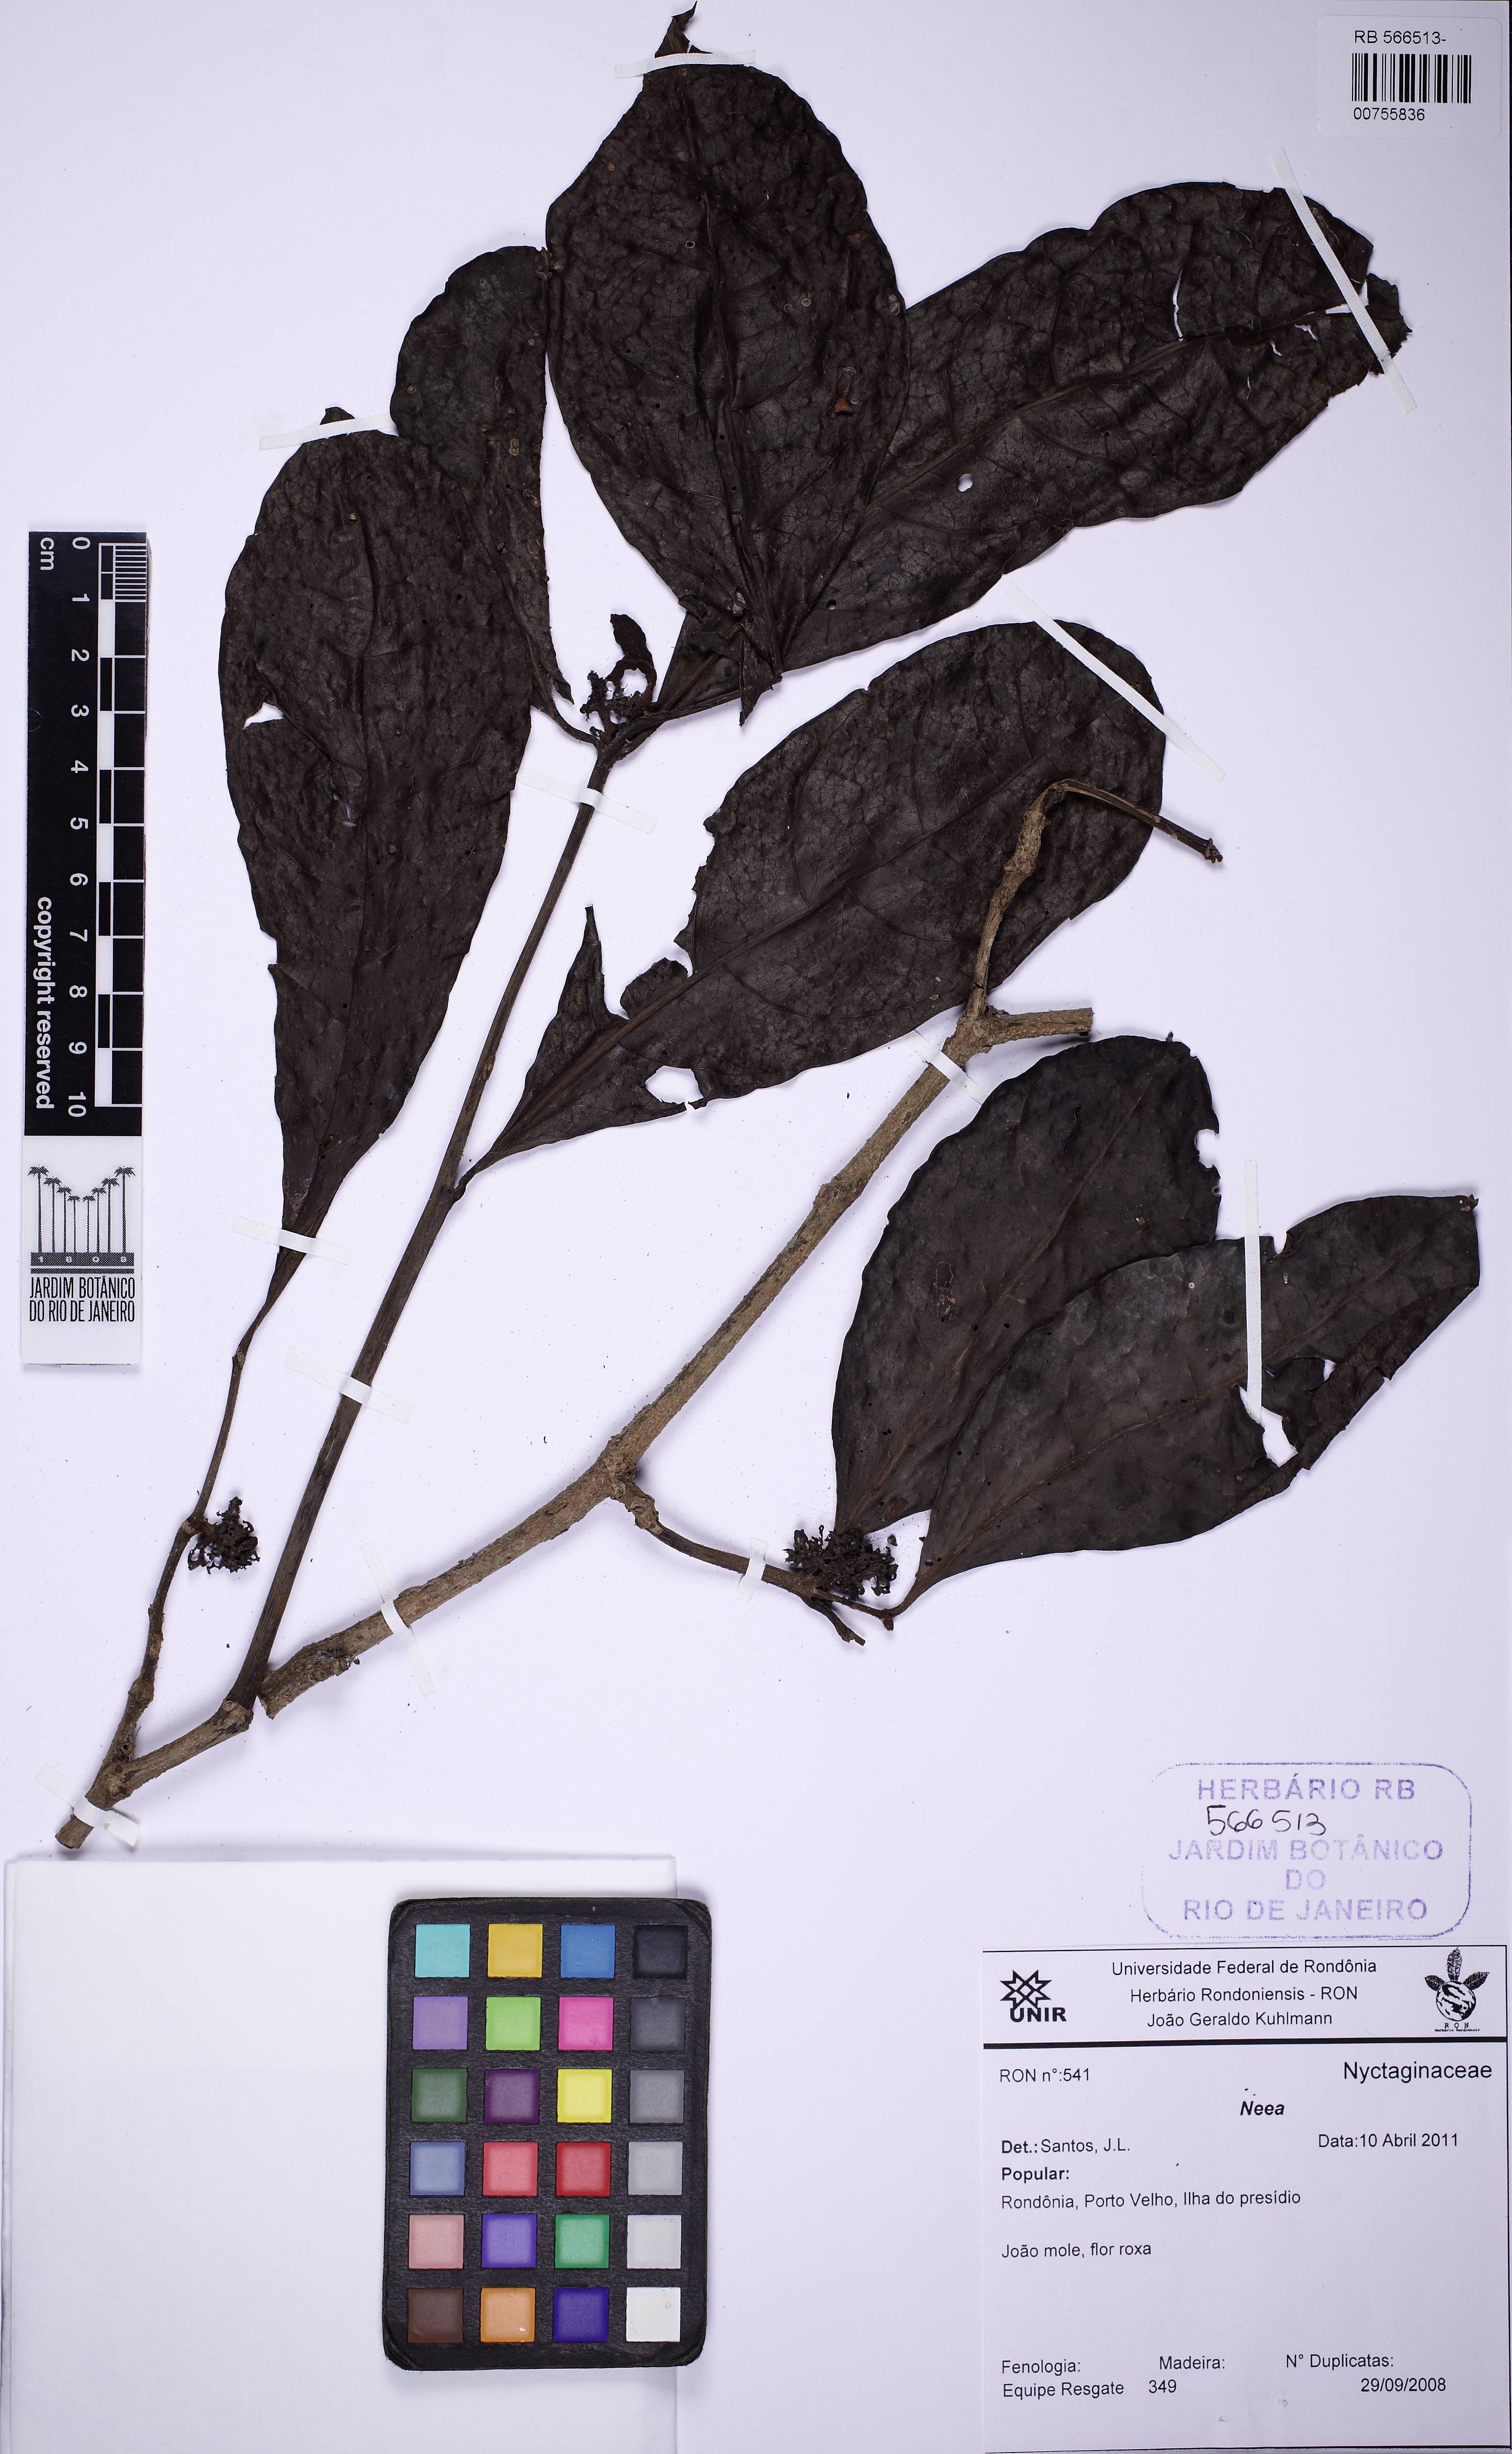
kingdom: Plantae
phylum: Tracheophyta
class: Magnoliopsida
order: Caryophyllales
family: Nyctaginaceae
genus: Neea
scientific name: Neea parviflora
